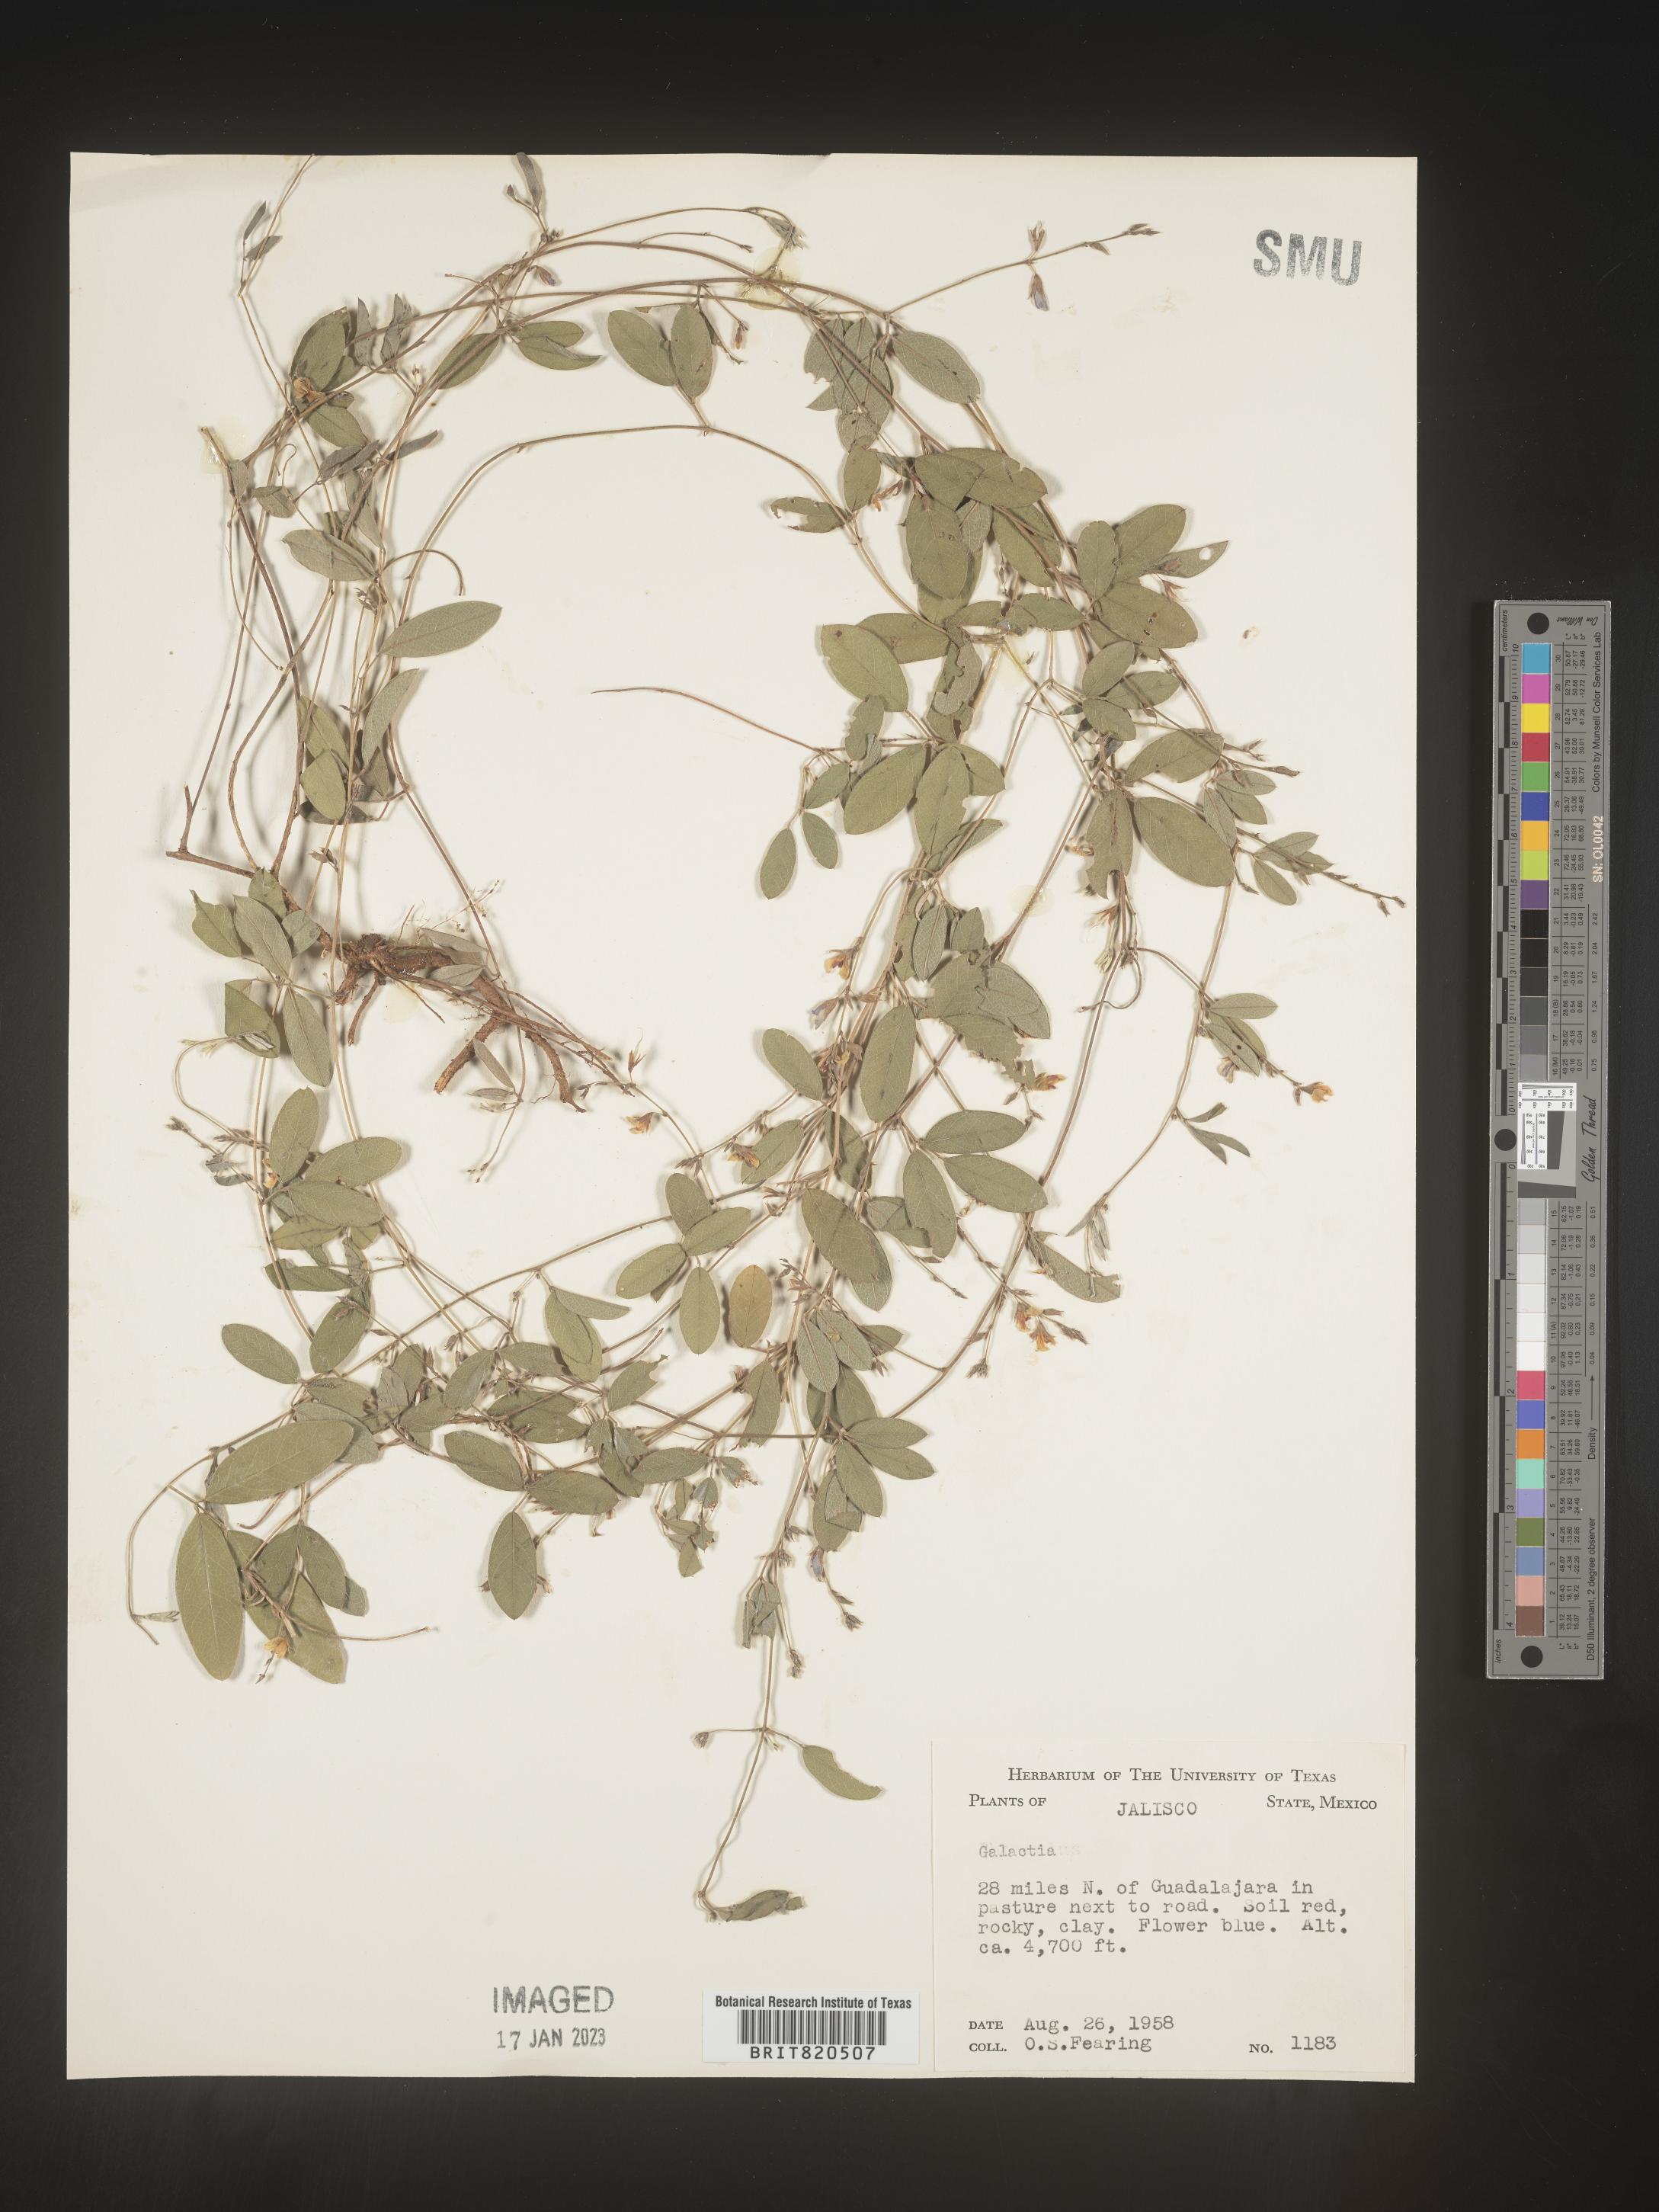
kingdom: Plantae
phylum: Tracheophyta
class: Magnoliopsida
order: Fabales
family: Fabaceae
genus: Galactia
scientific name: Galactia
